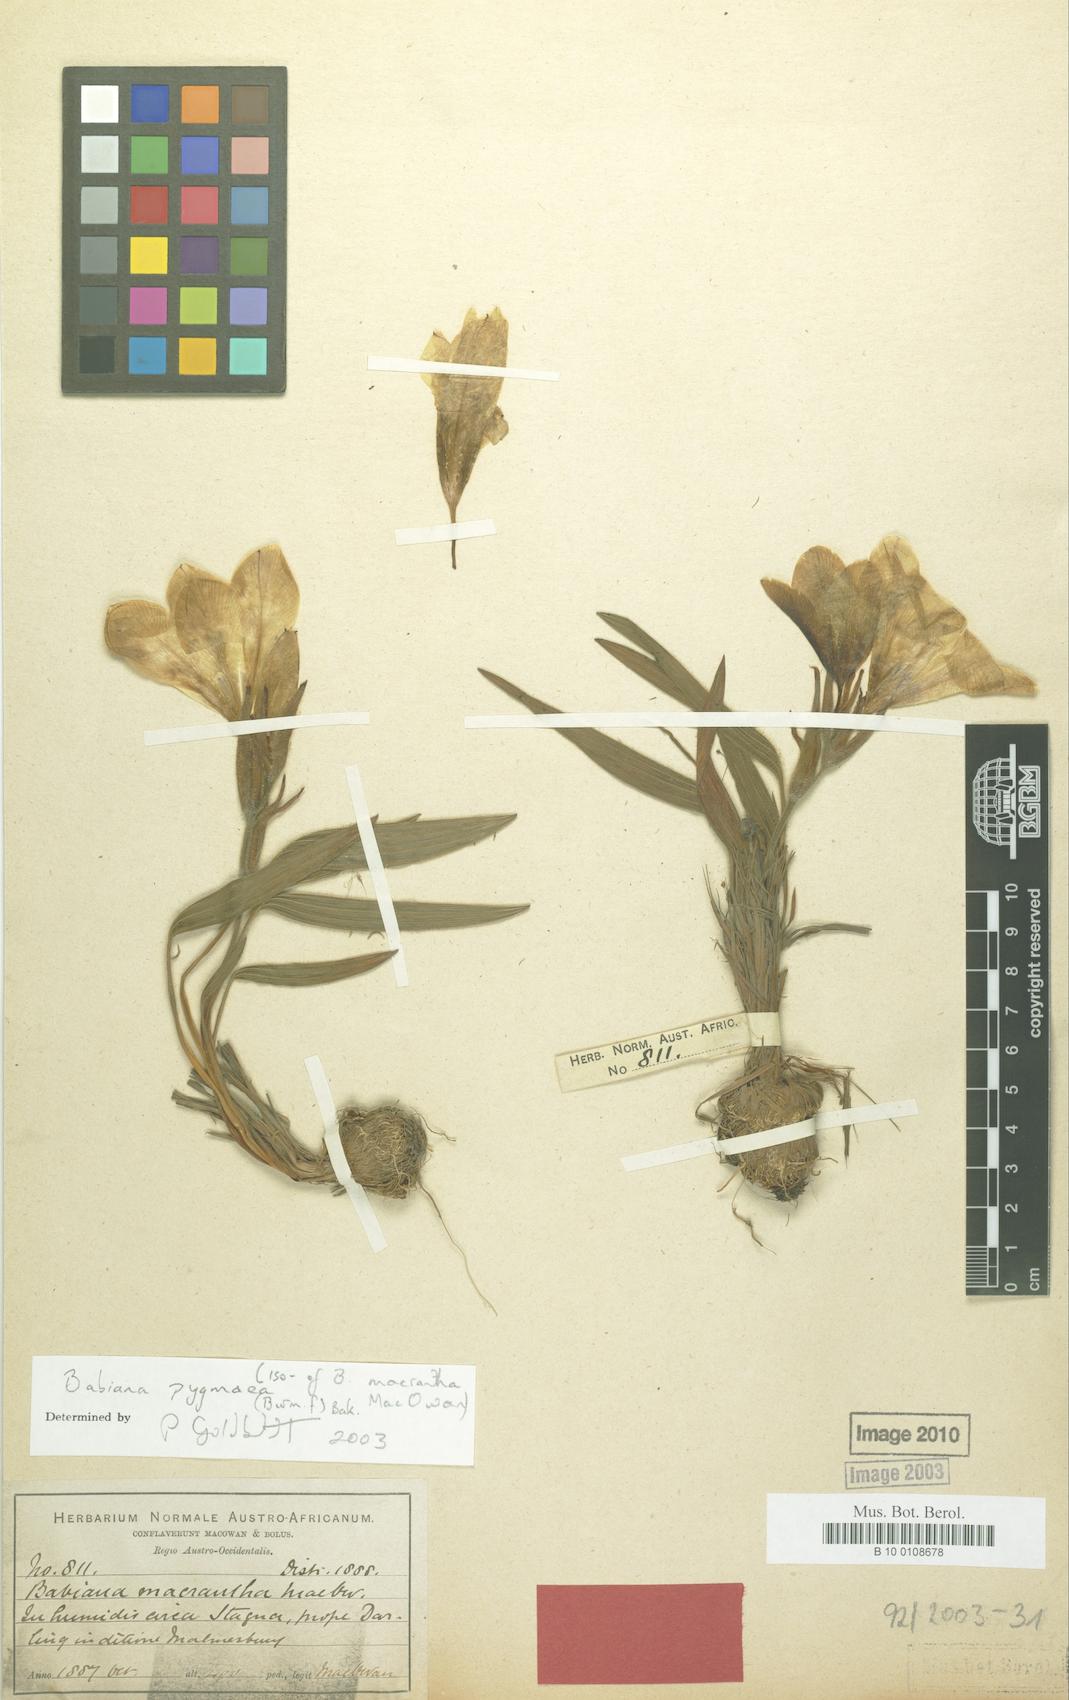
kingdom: Plantae
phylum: Tracheophyta
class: Liliopsida
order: Asparagales
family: Iridaceae
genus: Babiana
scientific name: Babiana pygmaea
